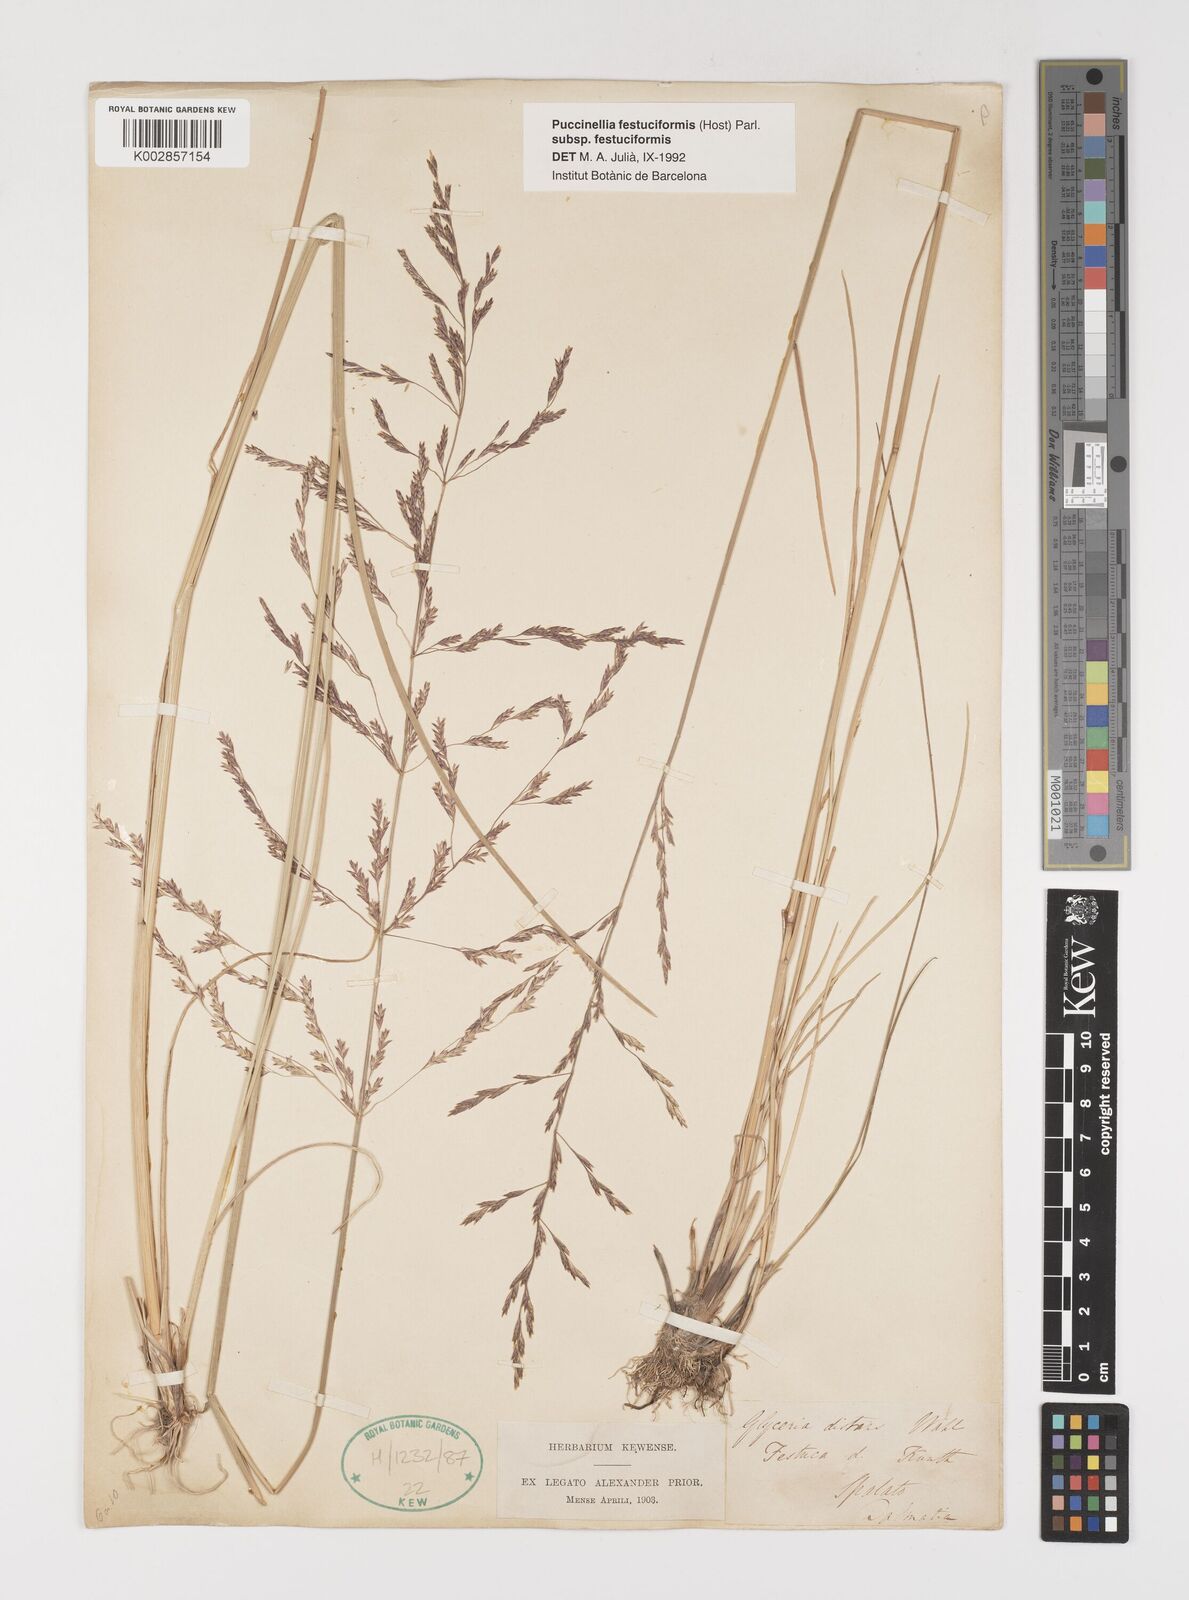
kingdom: Plantae
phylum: Tracheophyta
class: Liliopsida
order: Poales
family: Poaceae
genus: Puccinellia
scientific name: Puccinellia festuciformis
